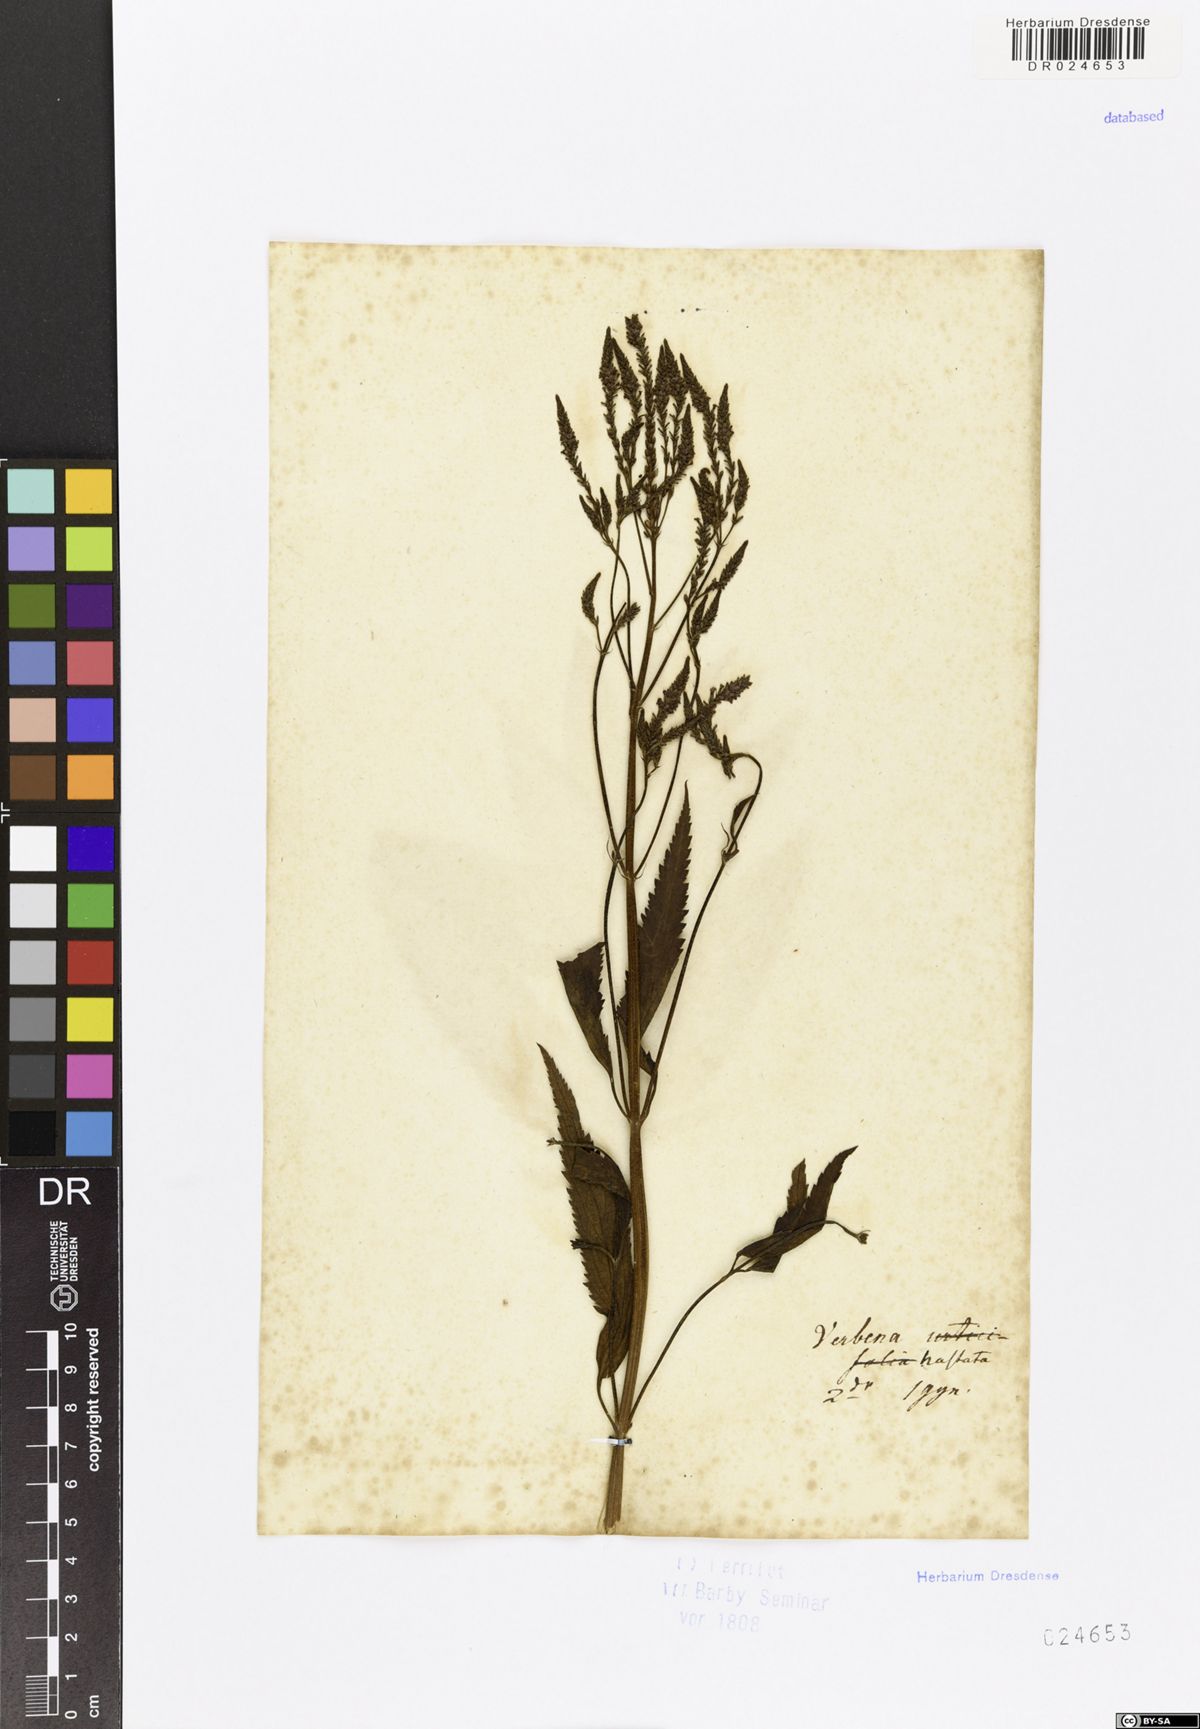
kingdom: Plantae
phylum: Tracheophyta
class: Magnoliopsida
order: Lamiales
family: Verbenaceae
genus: Verbena
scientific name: Verbena hastata
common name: American blue vervain
